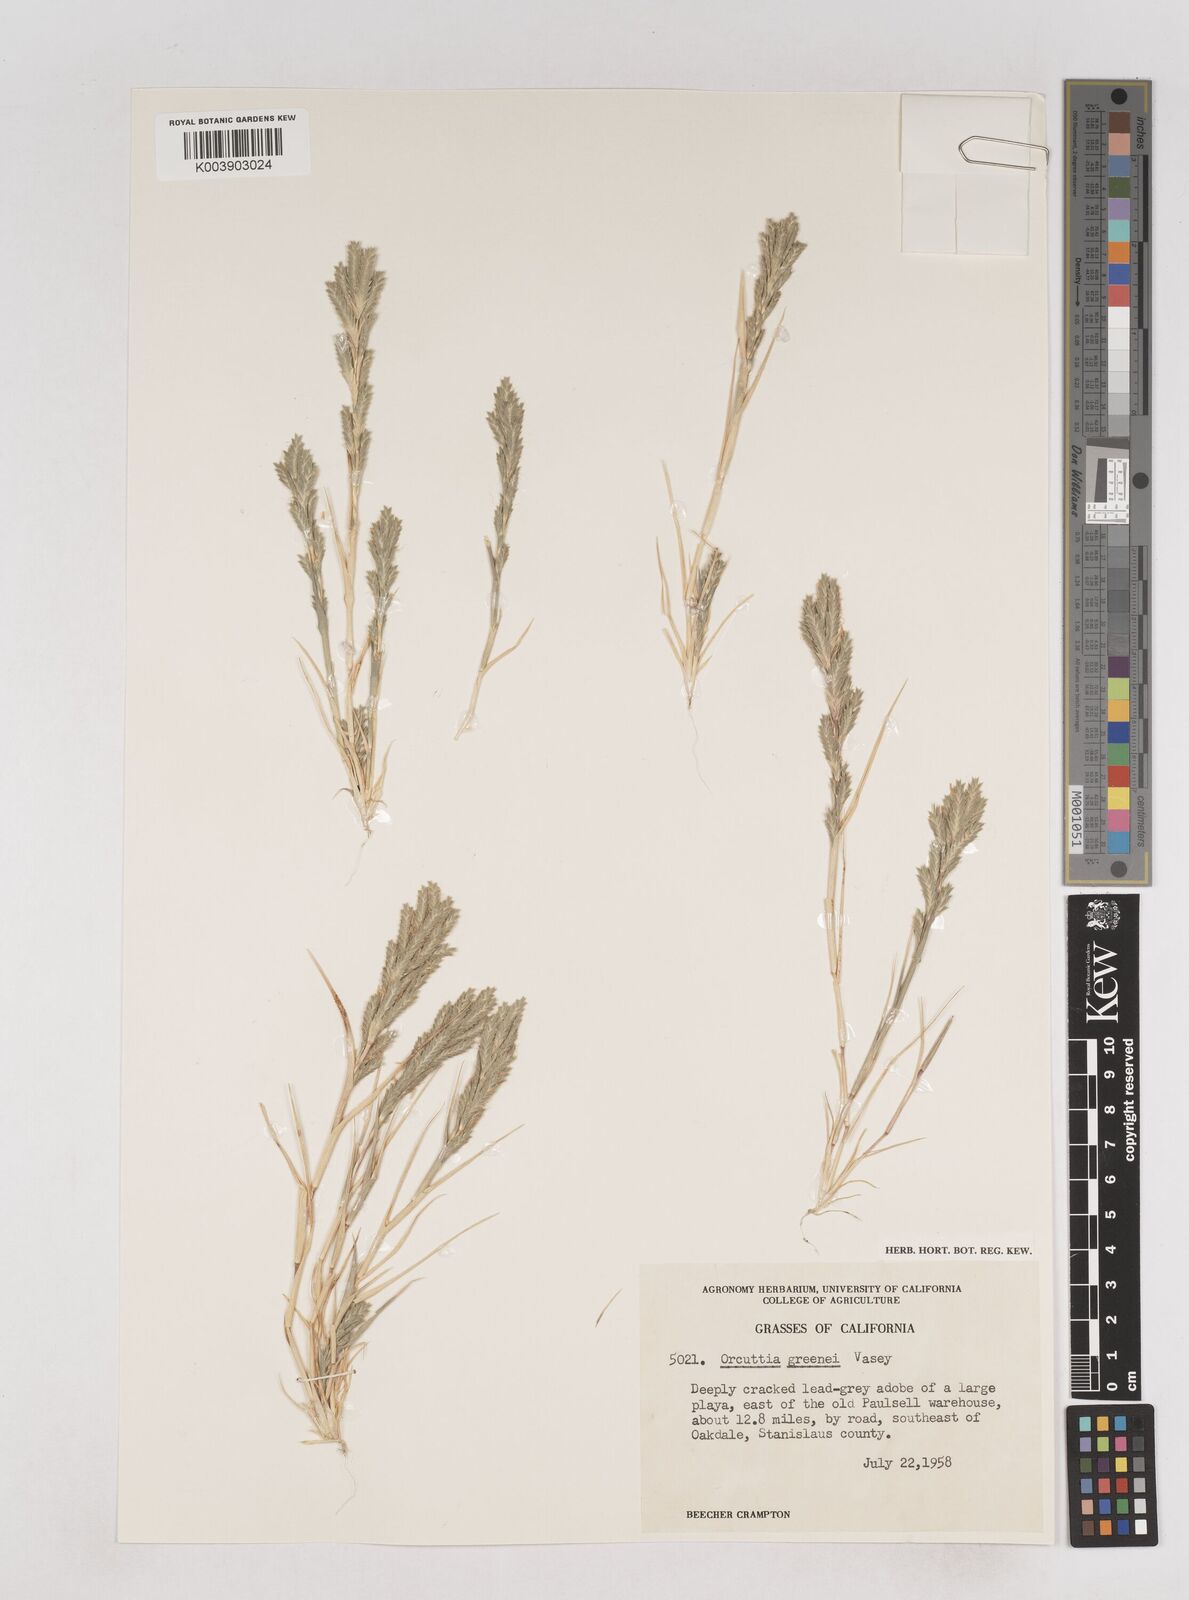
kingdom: Plantae
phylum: Tracheophyta
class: Liliopsida
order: Poales
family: Poaceae
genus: Tuctoria
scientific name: Tuctoria greenei
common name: Awnless spiral grass
